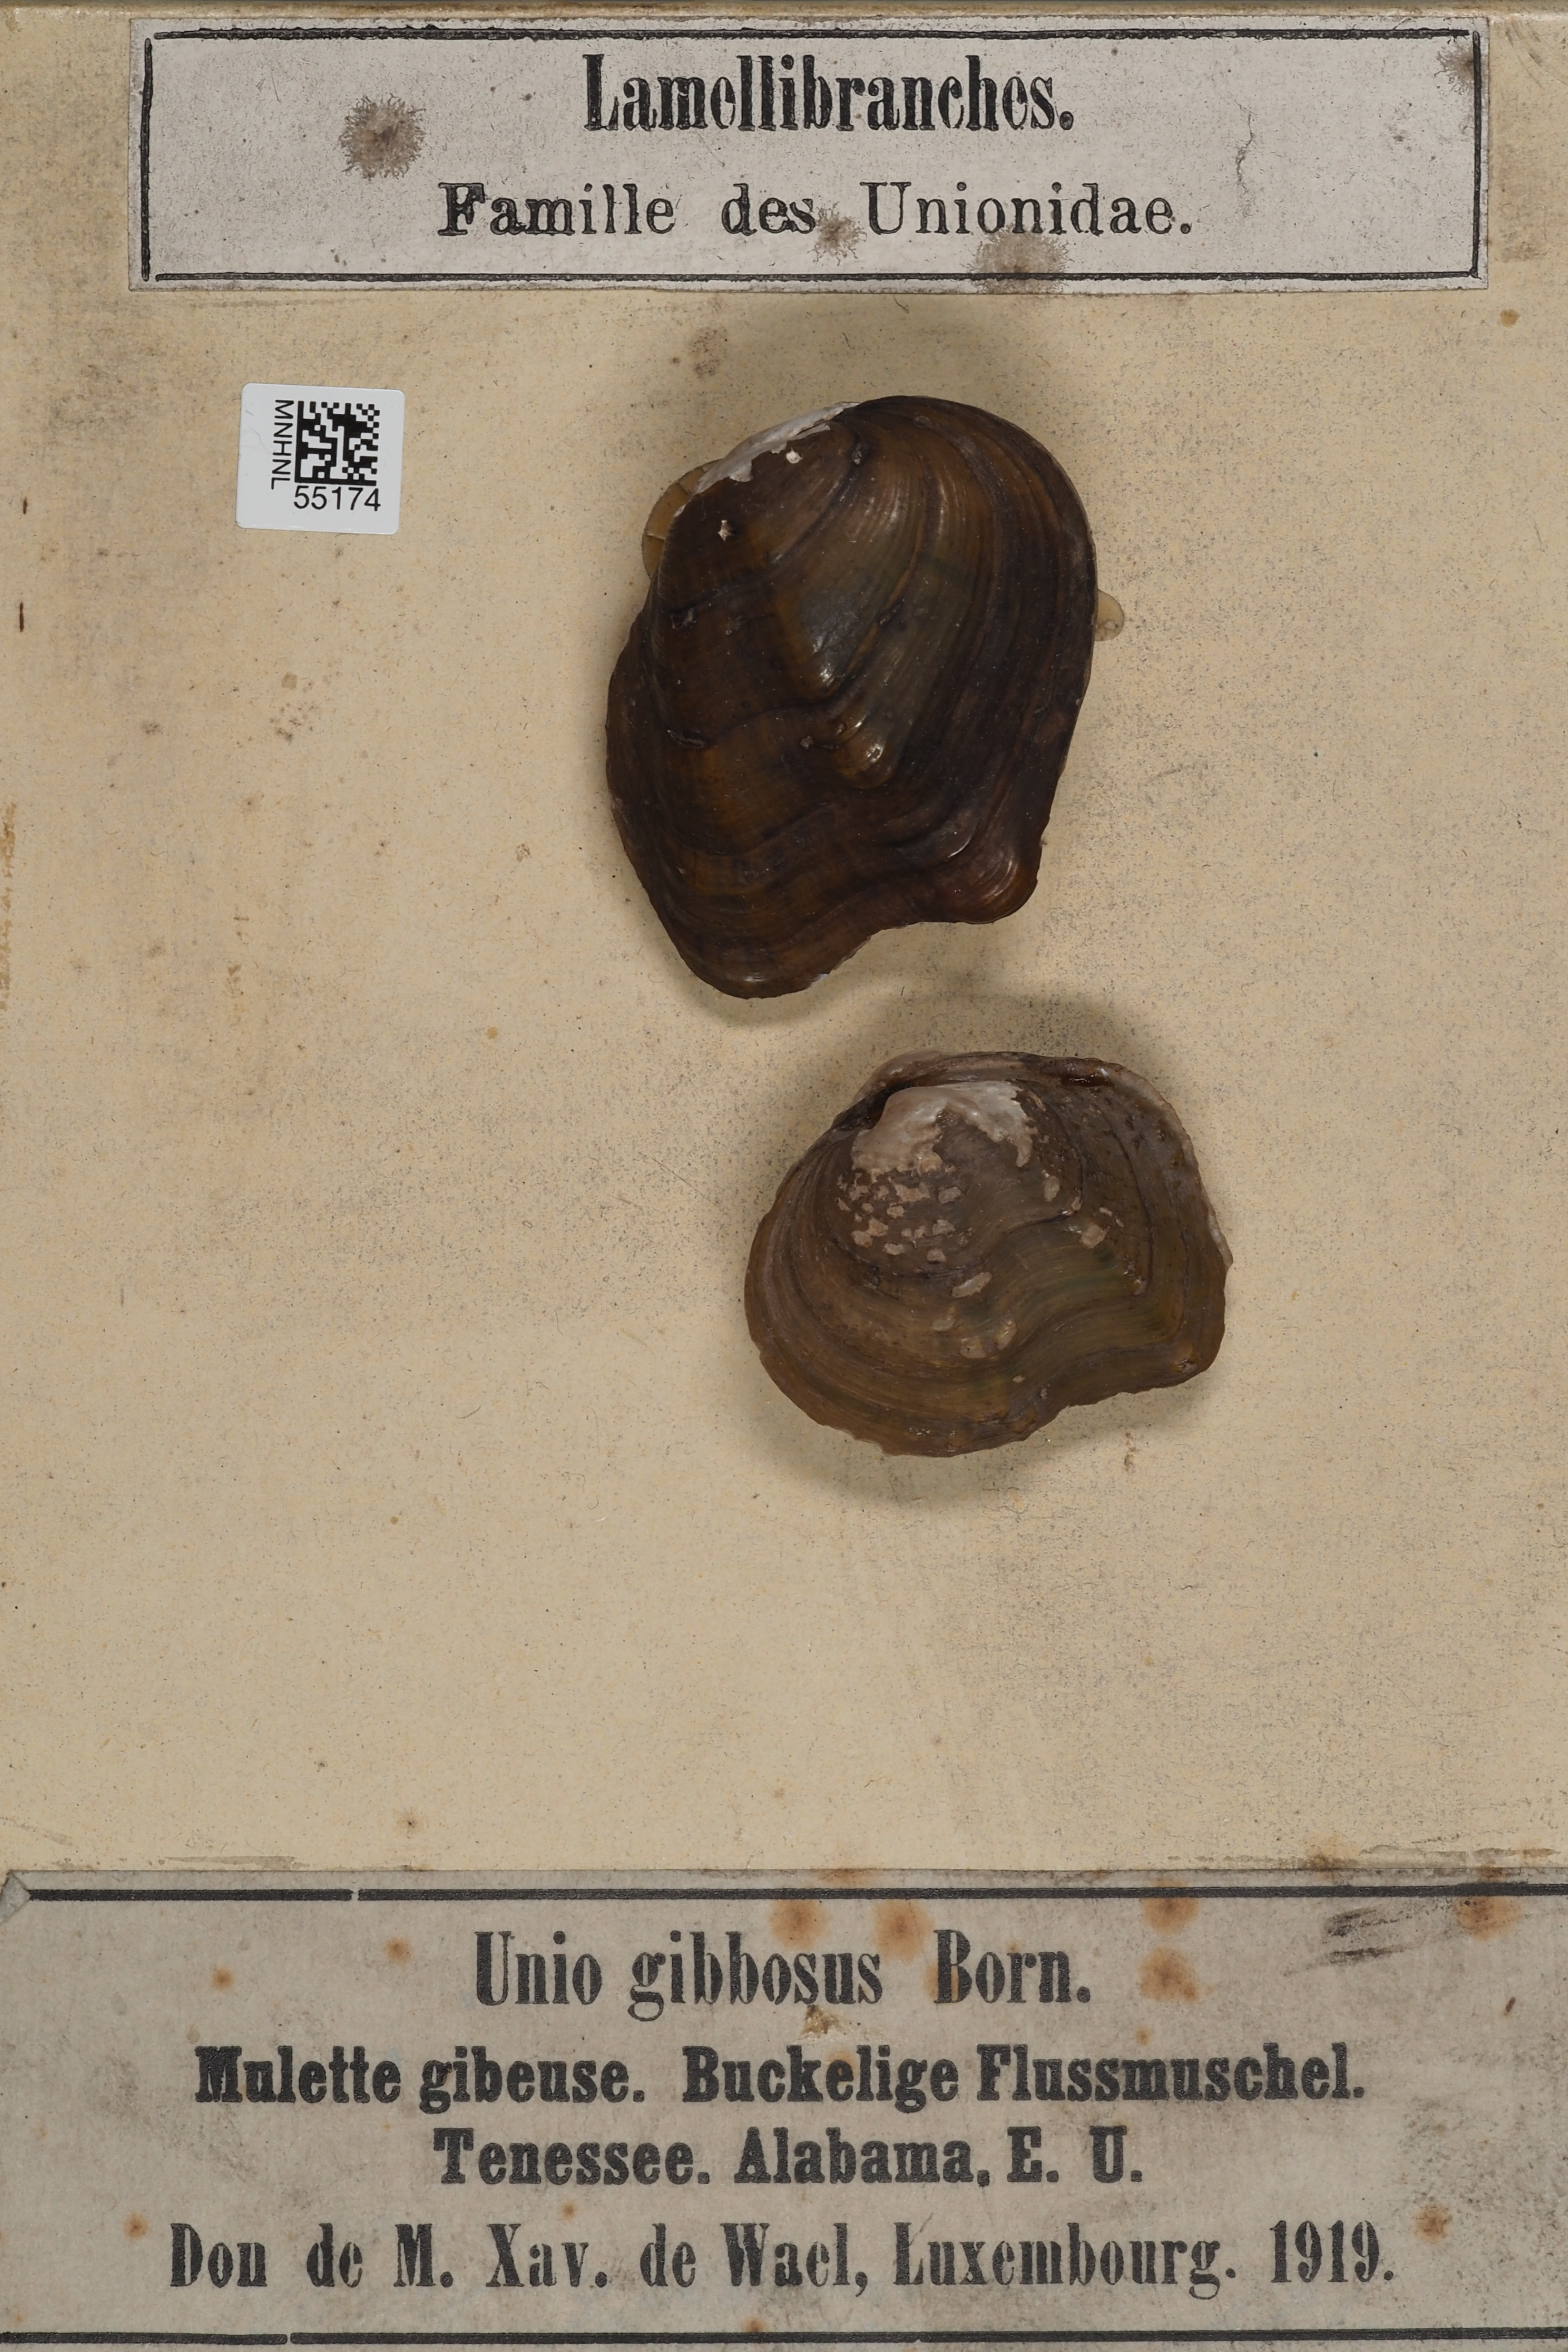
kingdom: Animalia
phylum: Mollusca
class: Bivalvia
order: Unionida
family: Unionidae
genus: Eurynia
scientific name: Eurynia dilatata
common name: Spike
